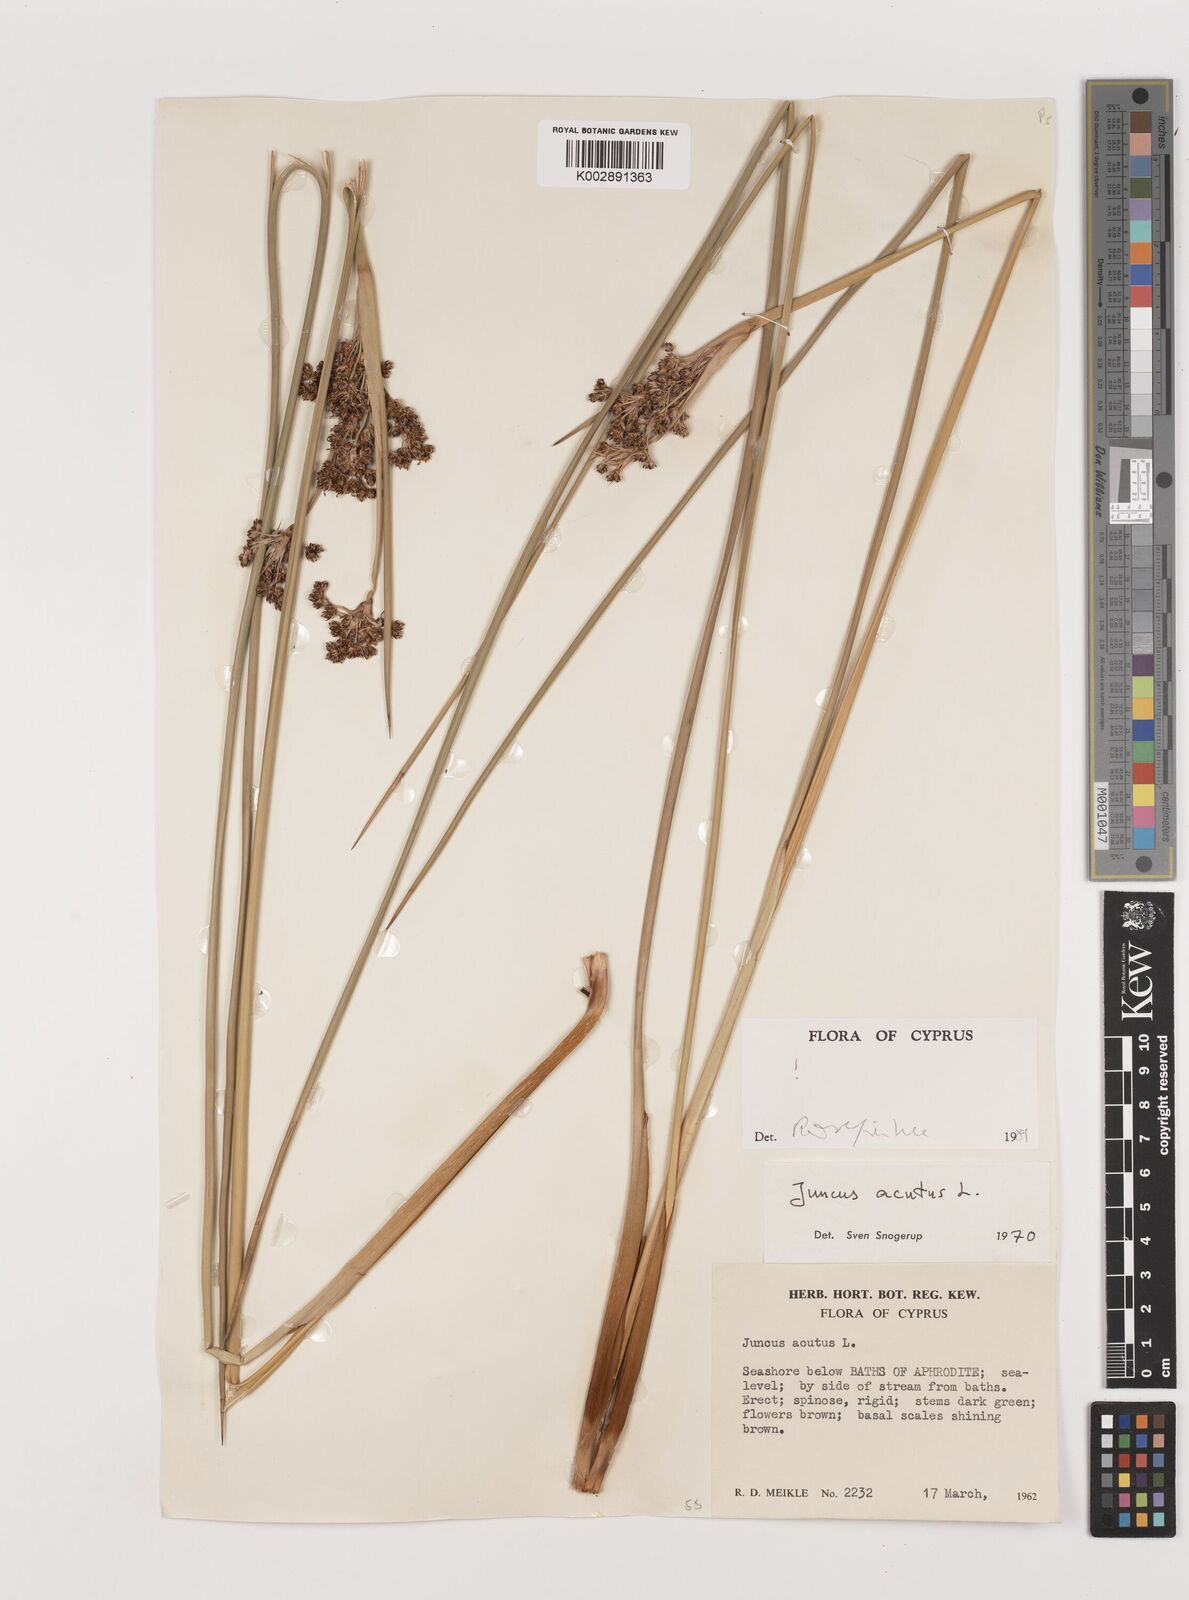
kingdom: Plantae
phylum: Tracheophyta
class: Liliopsida
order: Poales
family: Juncaceae
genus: Juncus
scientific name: Juncus acutus
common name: Sharp rush
